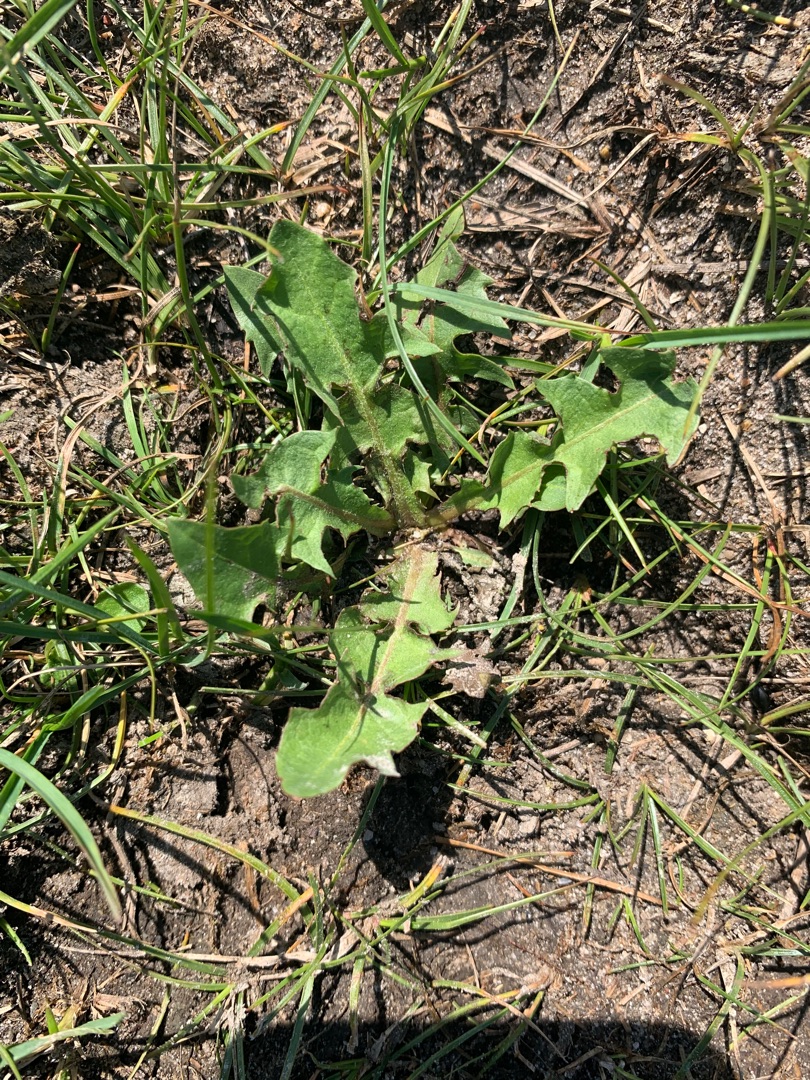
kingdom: Plantae
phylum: Tracheophyta
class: Magnoliopsida
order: Asterales
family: Asteraceae
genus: Taraxacum
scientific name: Taraxacum
